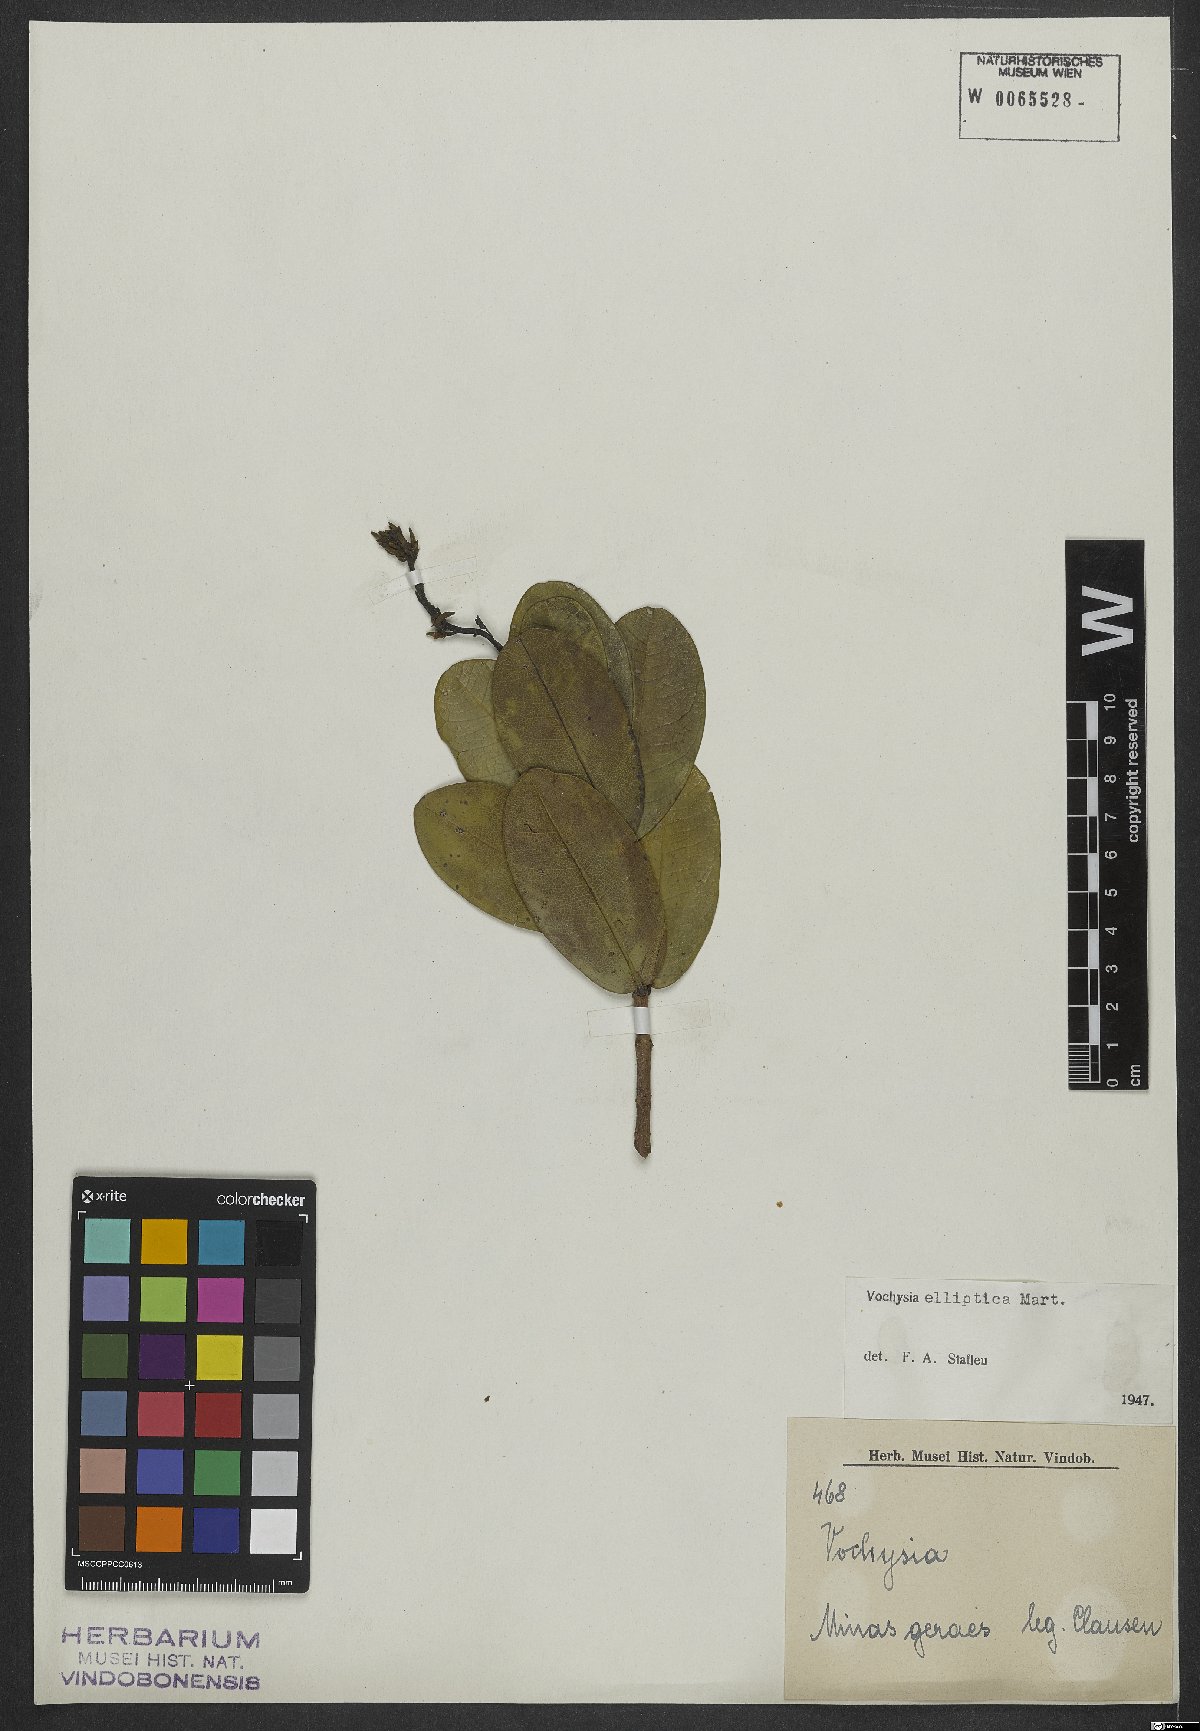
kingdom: Plantae
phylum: Tracheophyta
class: Magnoliopsida
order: Myrtales
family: Vochysiaceae
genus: Vochysia
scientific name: Vochysia elliptica
